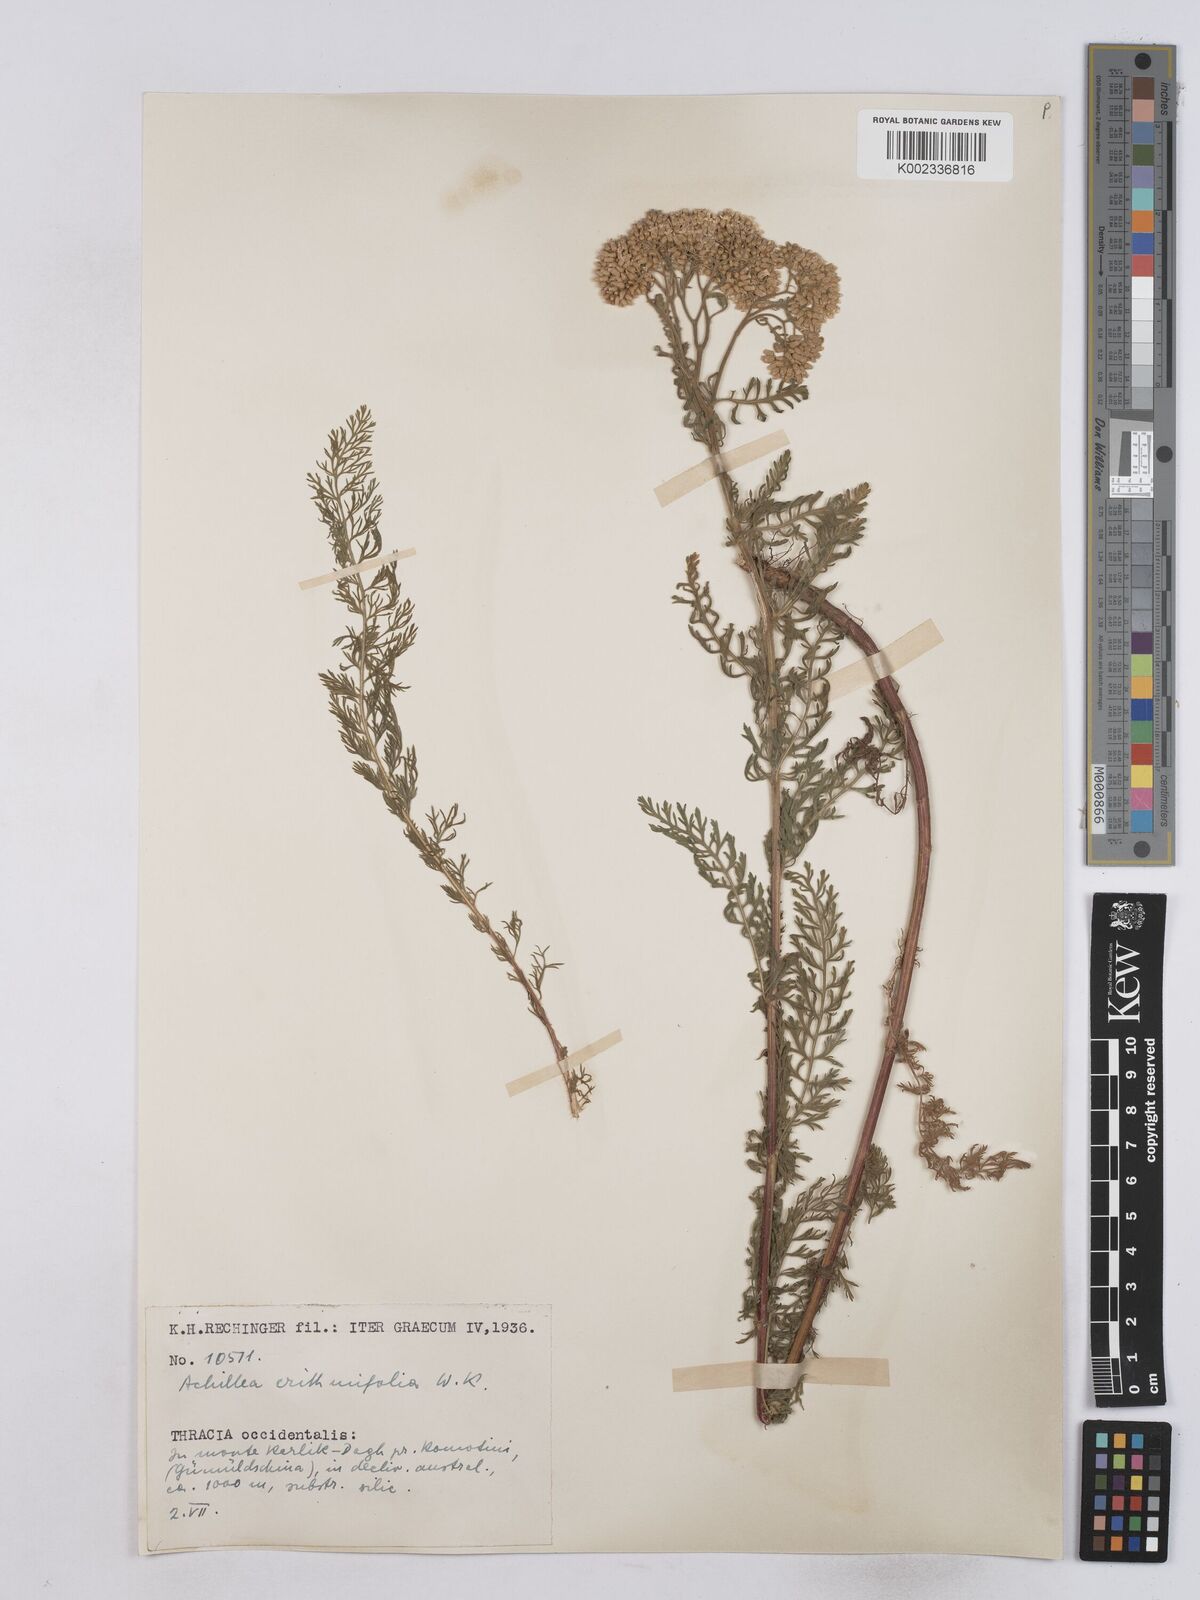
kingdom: Plantae
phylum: Tracheophyta
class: Magnoliopsida
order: Asterales
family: Asteraceae
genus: Achillea
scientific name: Achillea crithmifolia
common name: Yarrow
